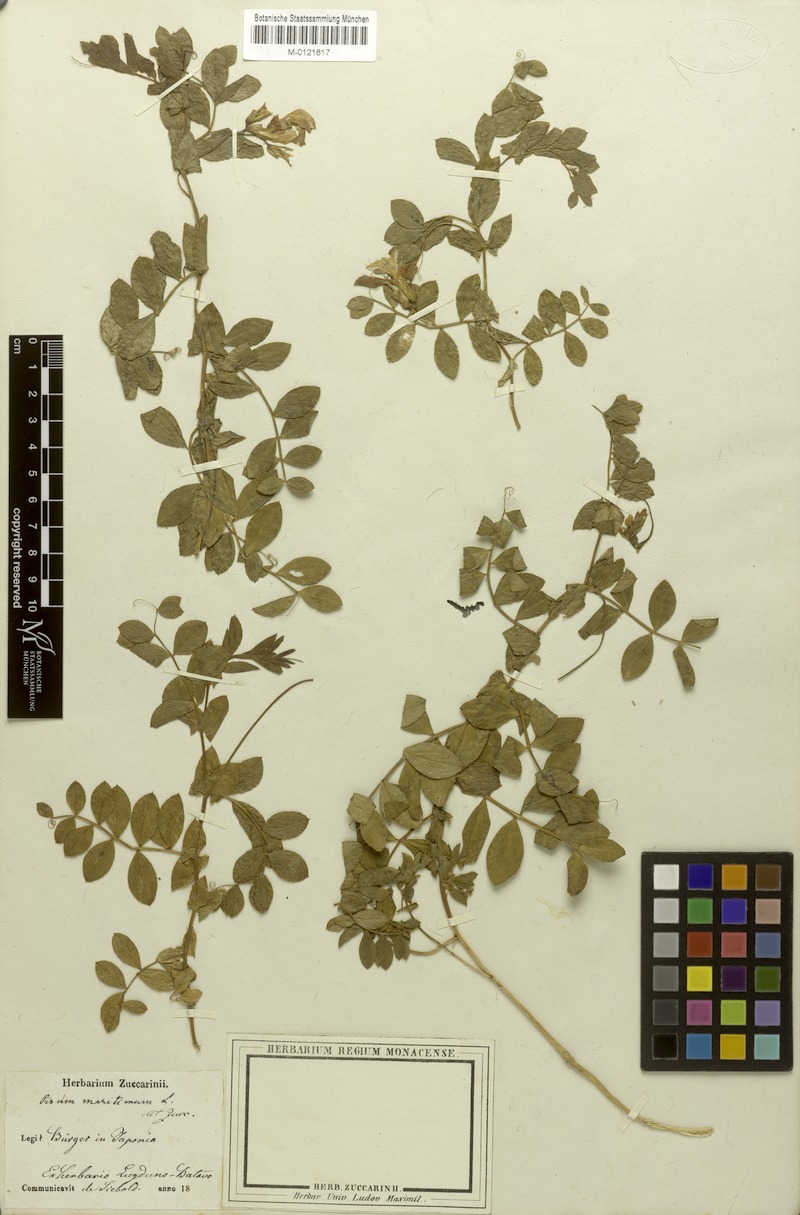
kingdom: Plantae
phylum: Tracheophyta
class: Magnoliopsida
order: Fabales
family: Fabaceae
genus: Lathyrus
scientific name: Lathyrus japonicus
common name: Sea pea
